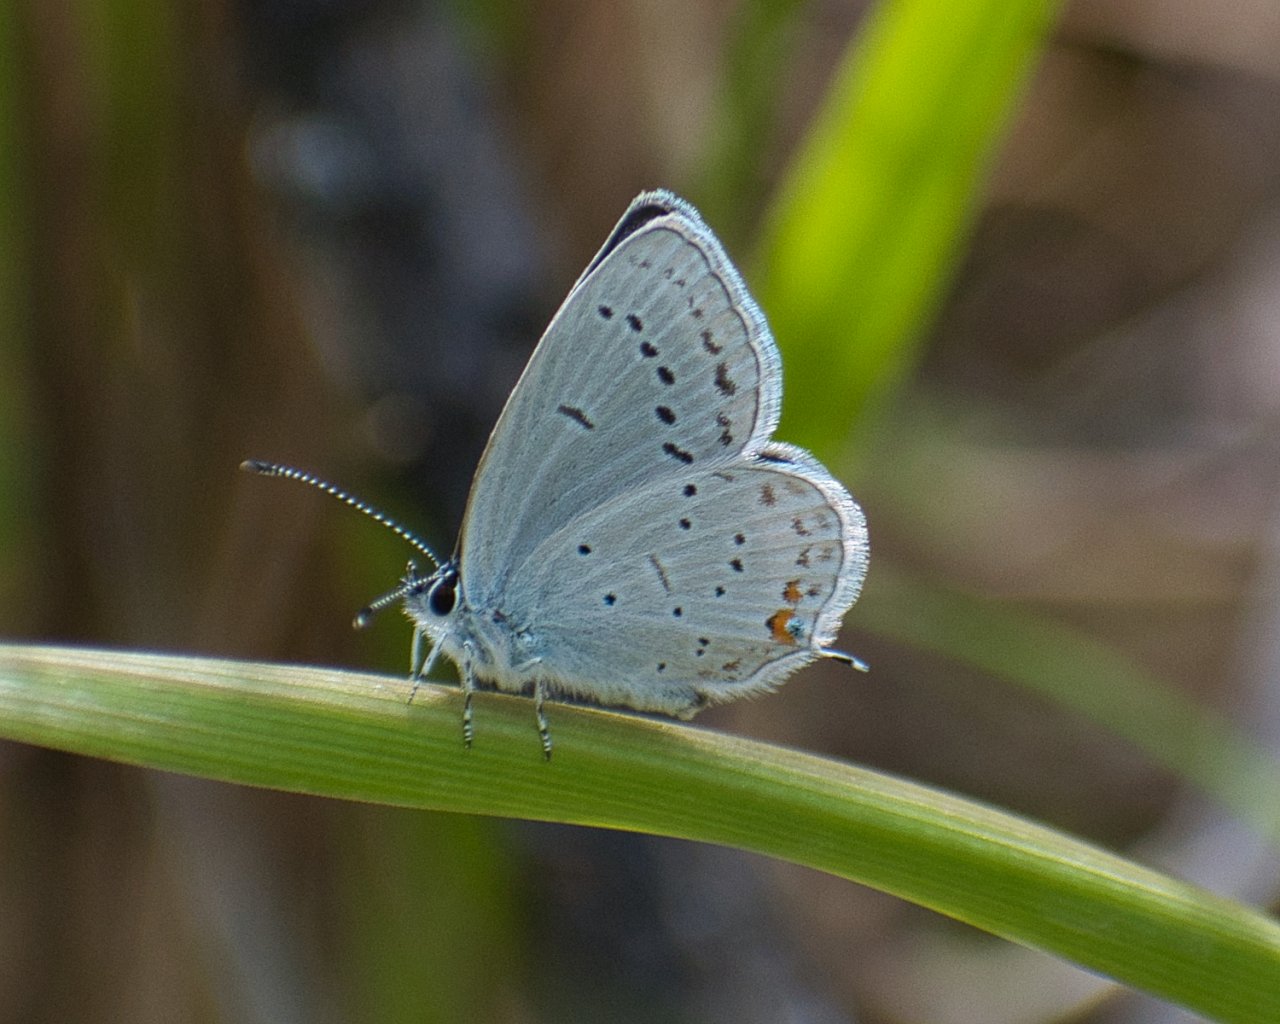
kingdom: Animalia
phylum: Arthropoda
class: Insecta
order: Lepidoptera
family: Lycaenidae
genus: Elkalyce
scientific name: Elkalyce amyntula
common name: Western Tailed-Blue
